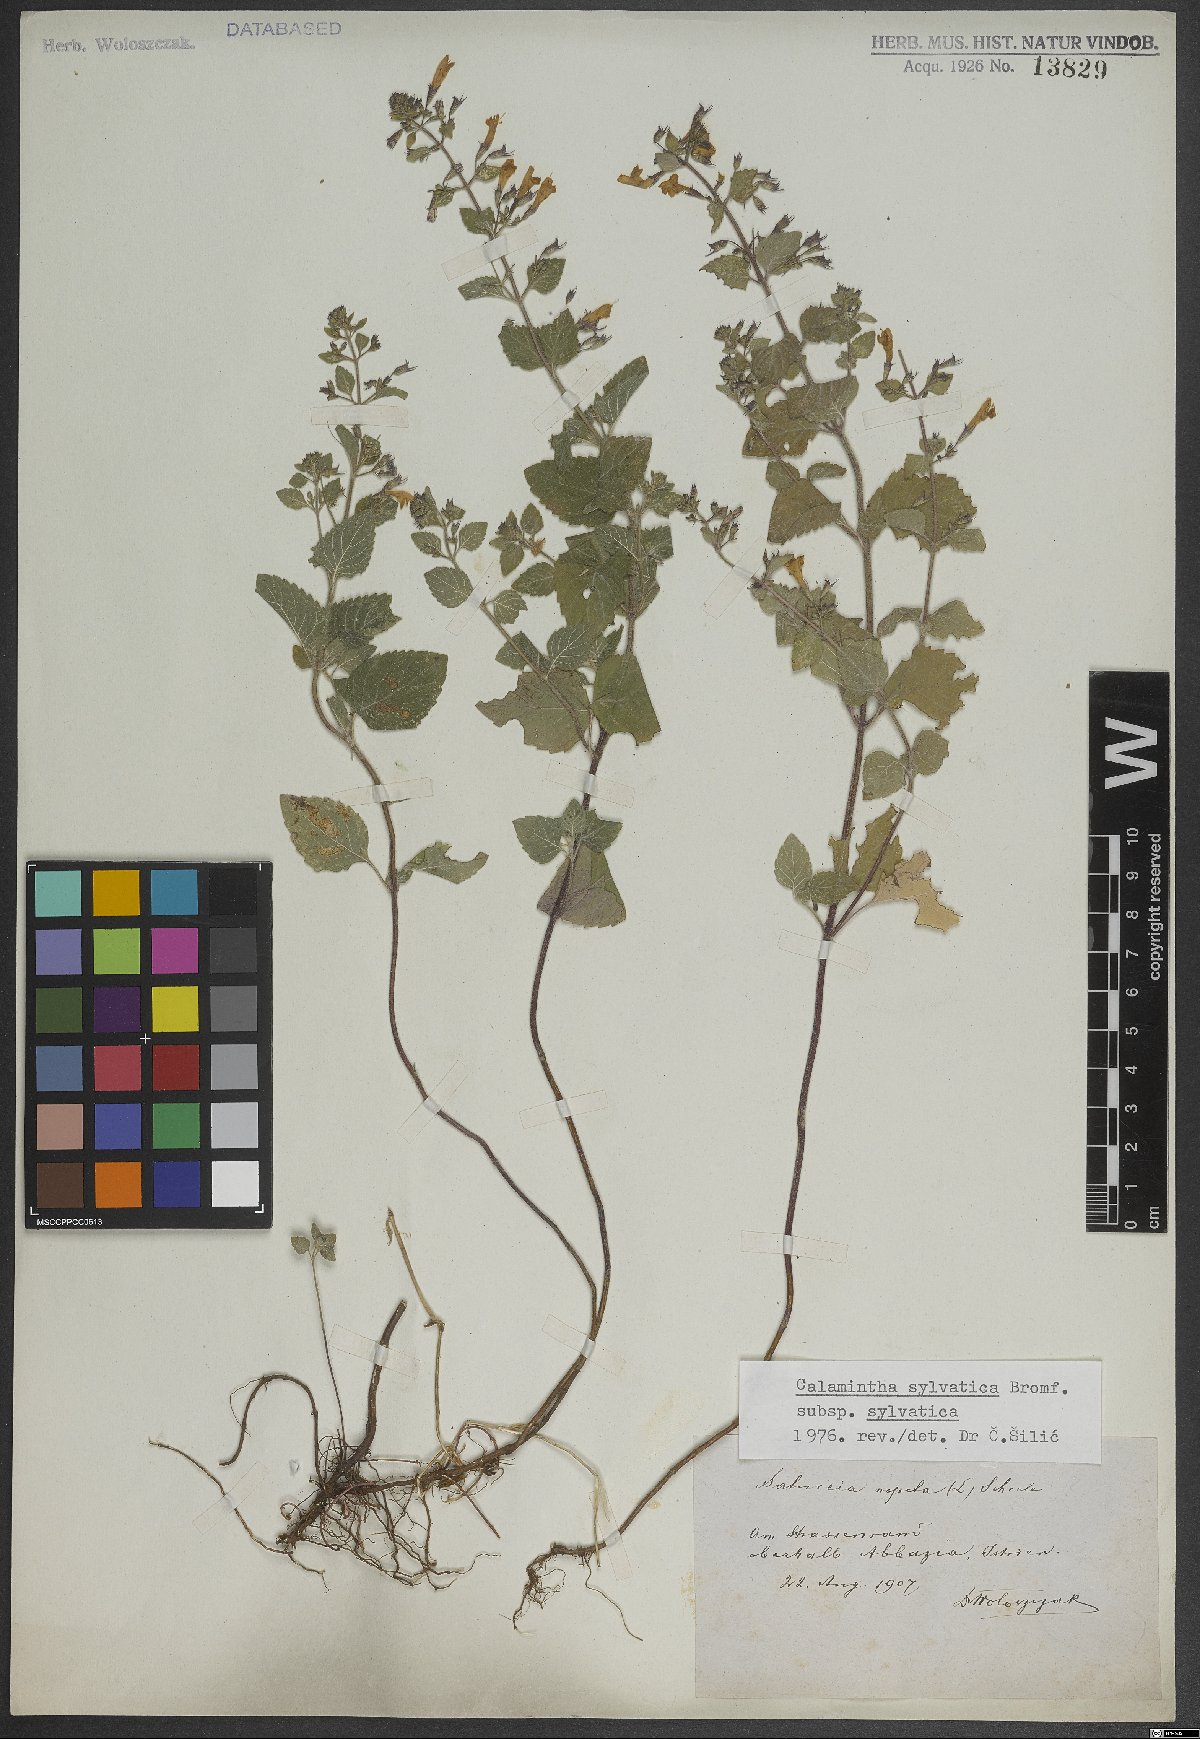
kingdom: Plantae
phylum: Tracheophyta
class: Magnoliopsida
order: Lamiales
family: Lamiaceae
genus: Clinopodium
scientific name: Clinopodium menthifolium
